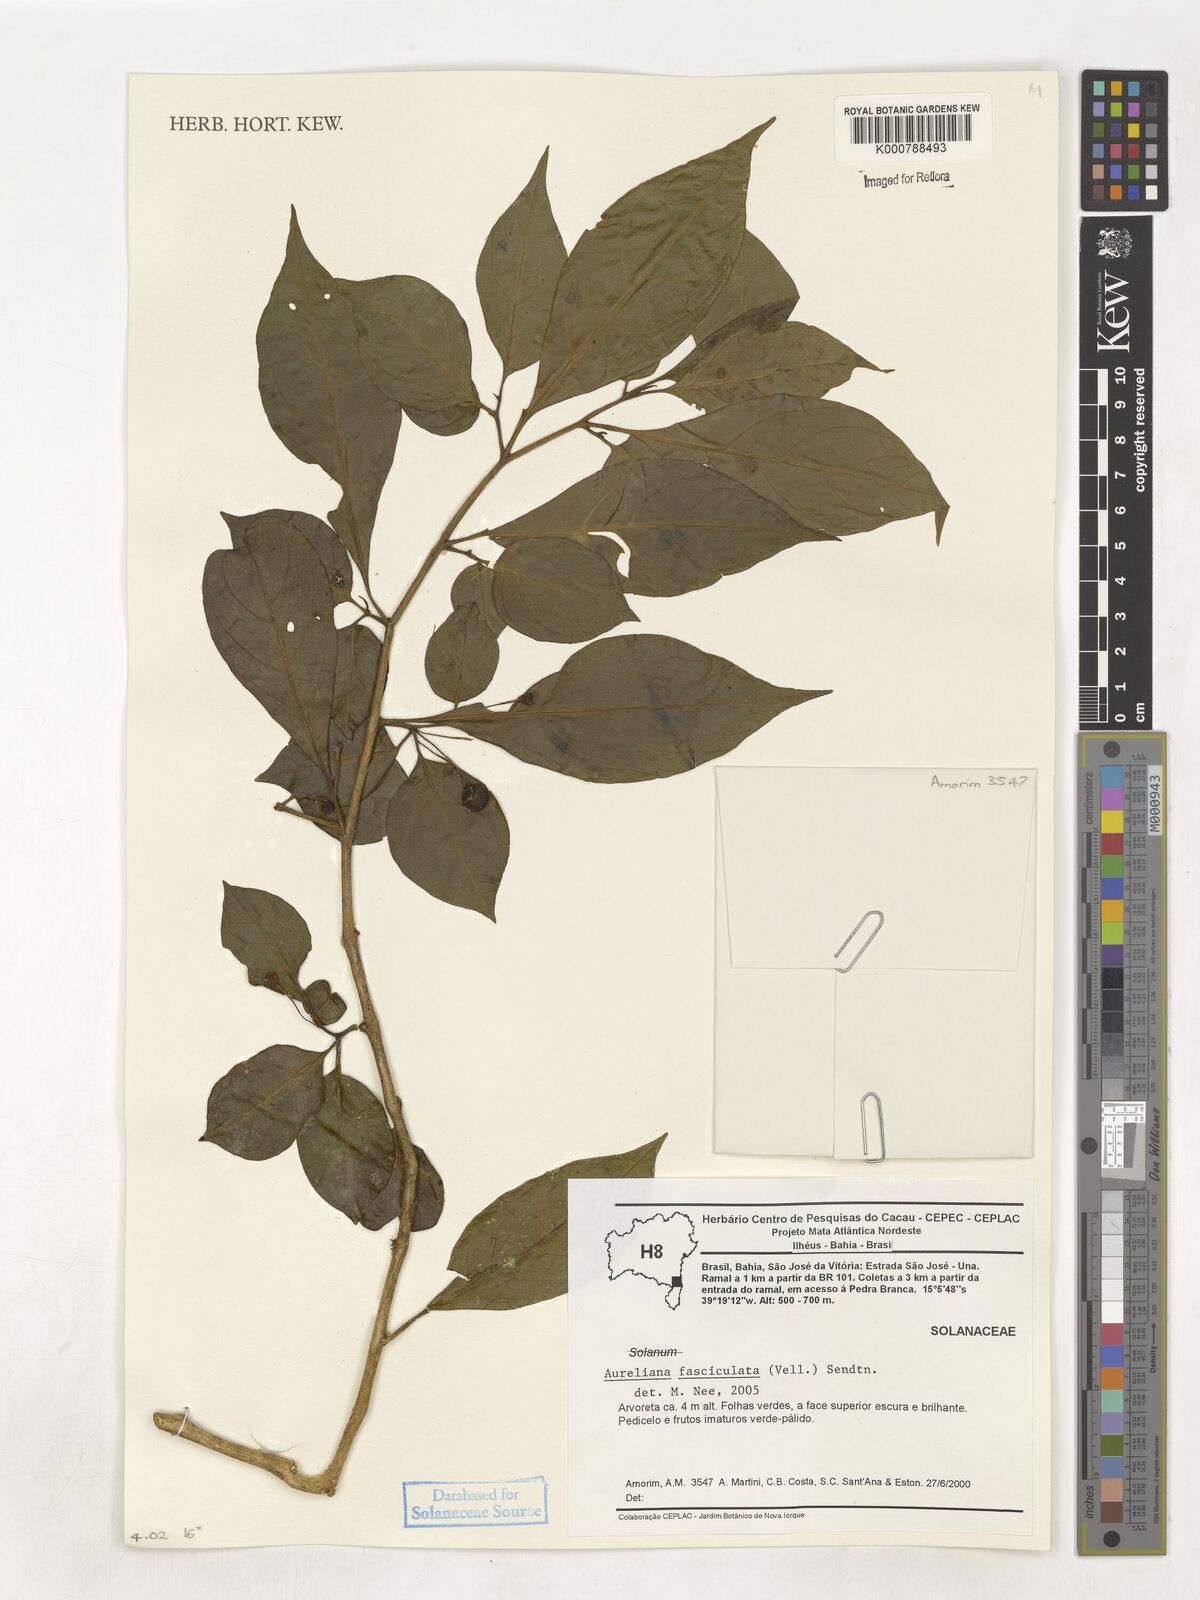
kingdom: Plantae
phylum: Tracheophyta
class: Magnoliopsida
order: Solanales
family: Solanaceae
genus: Athenaea
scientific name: Athenaea fasciculata
